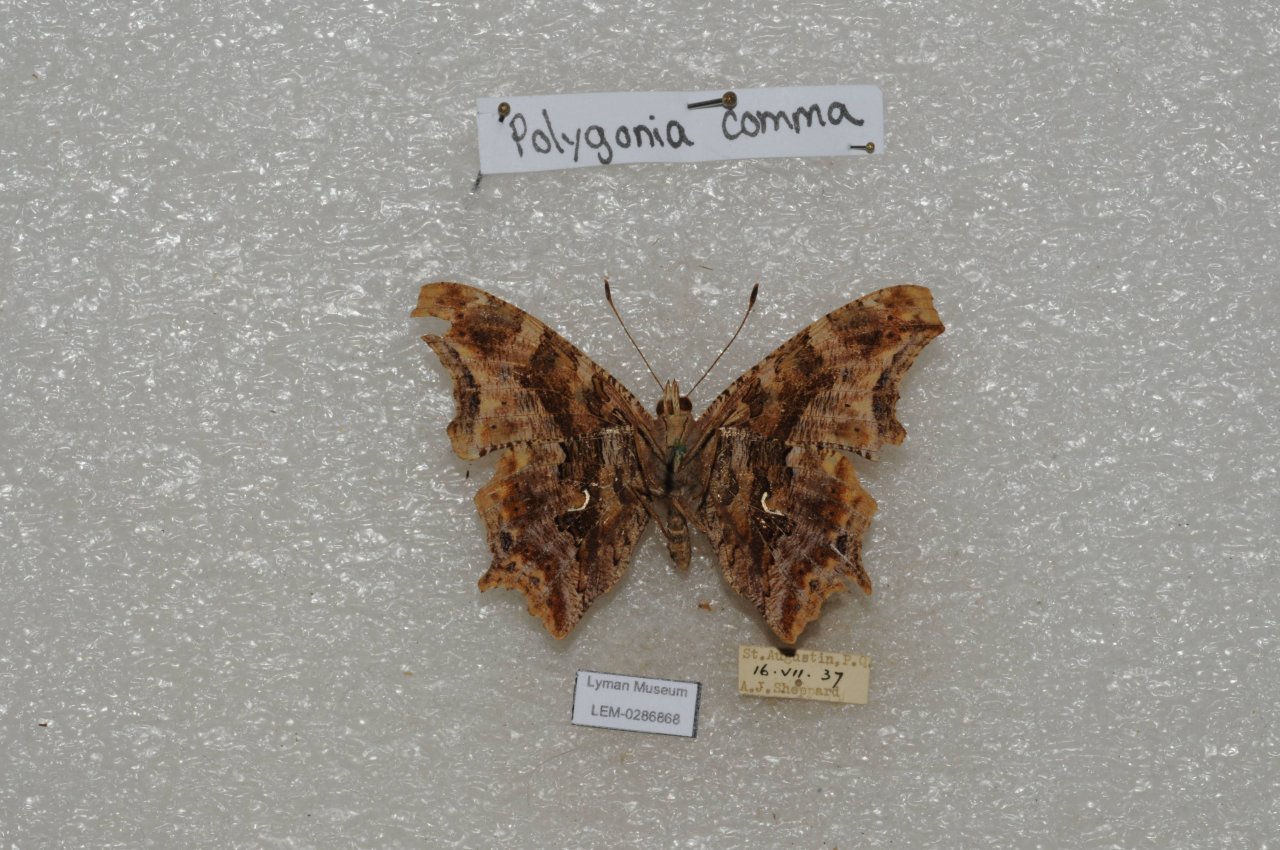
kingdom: Animalia
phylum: Arthropoda
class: Insecta
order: Lepidoptera
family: Nymphalidae
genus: Polygonia
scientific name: Polygonia comma
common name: Eastern Comma
